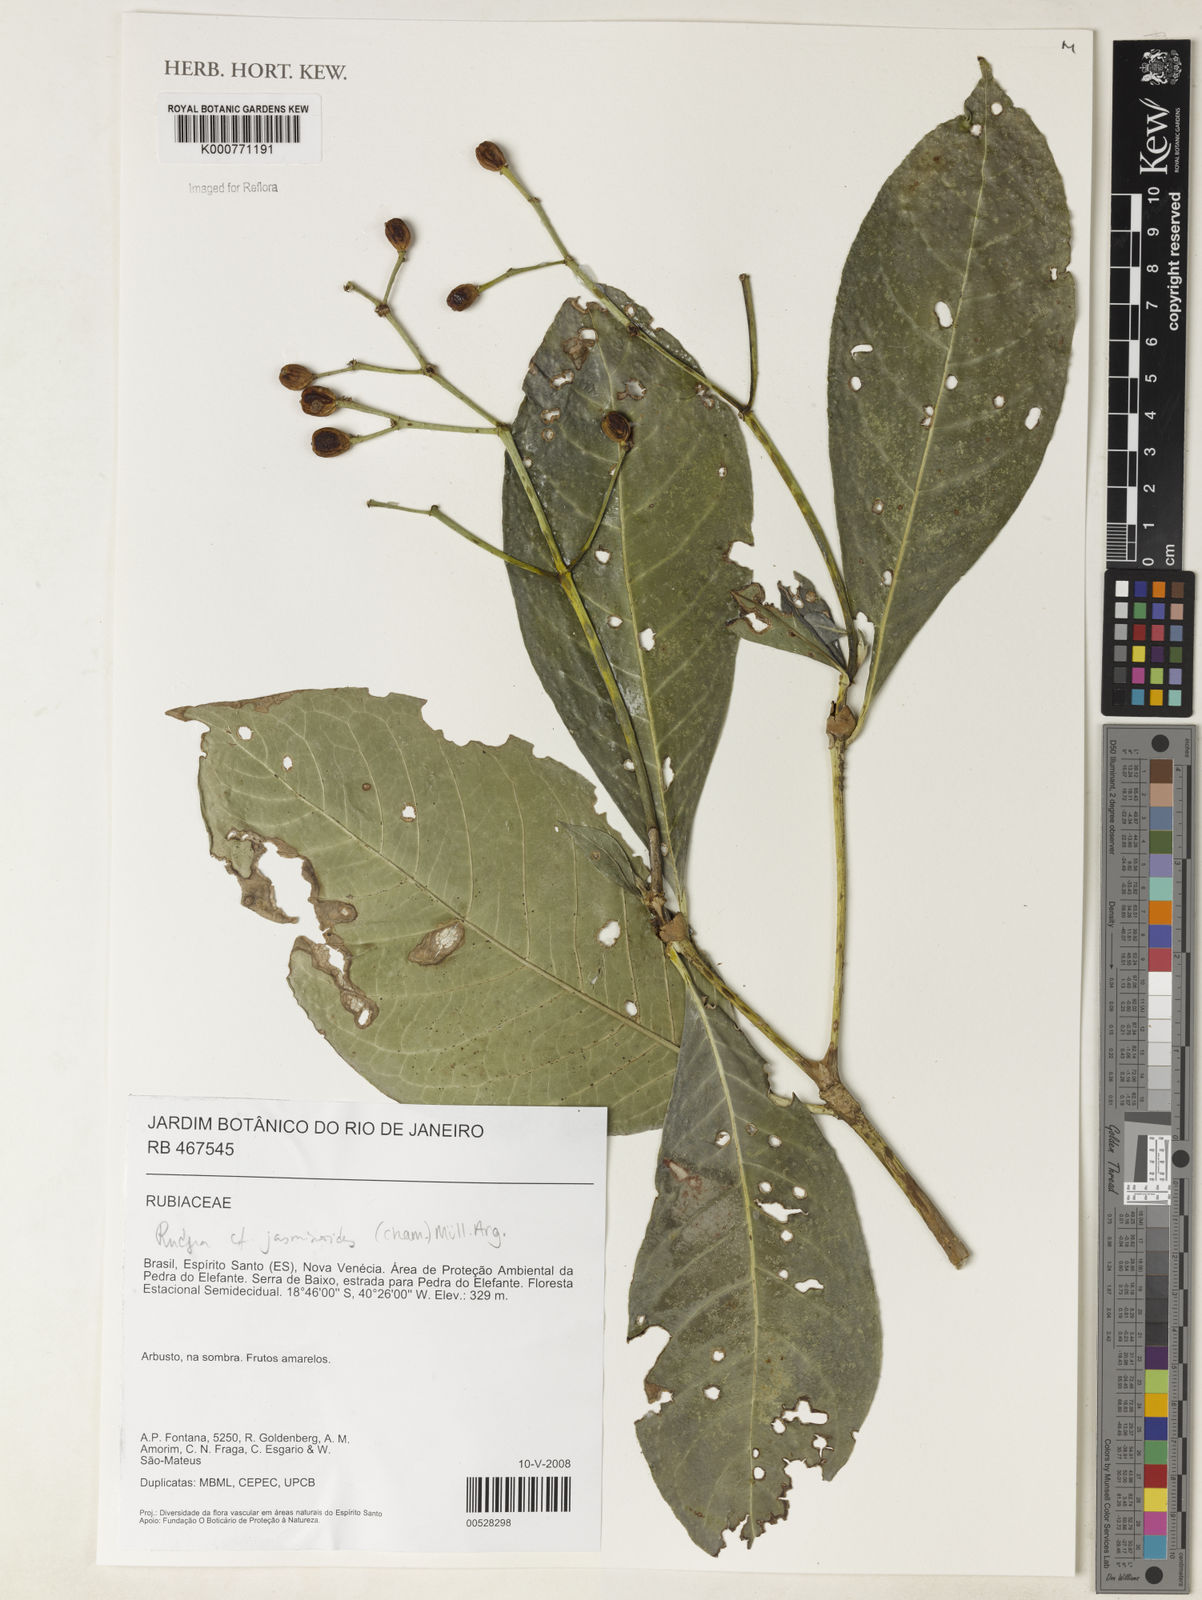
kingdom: Plantae
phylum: Tracheophyta
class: Magnoliopsida
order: Gentianales
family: Rubiaceae
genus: Rudgea
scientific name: Rudgea
